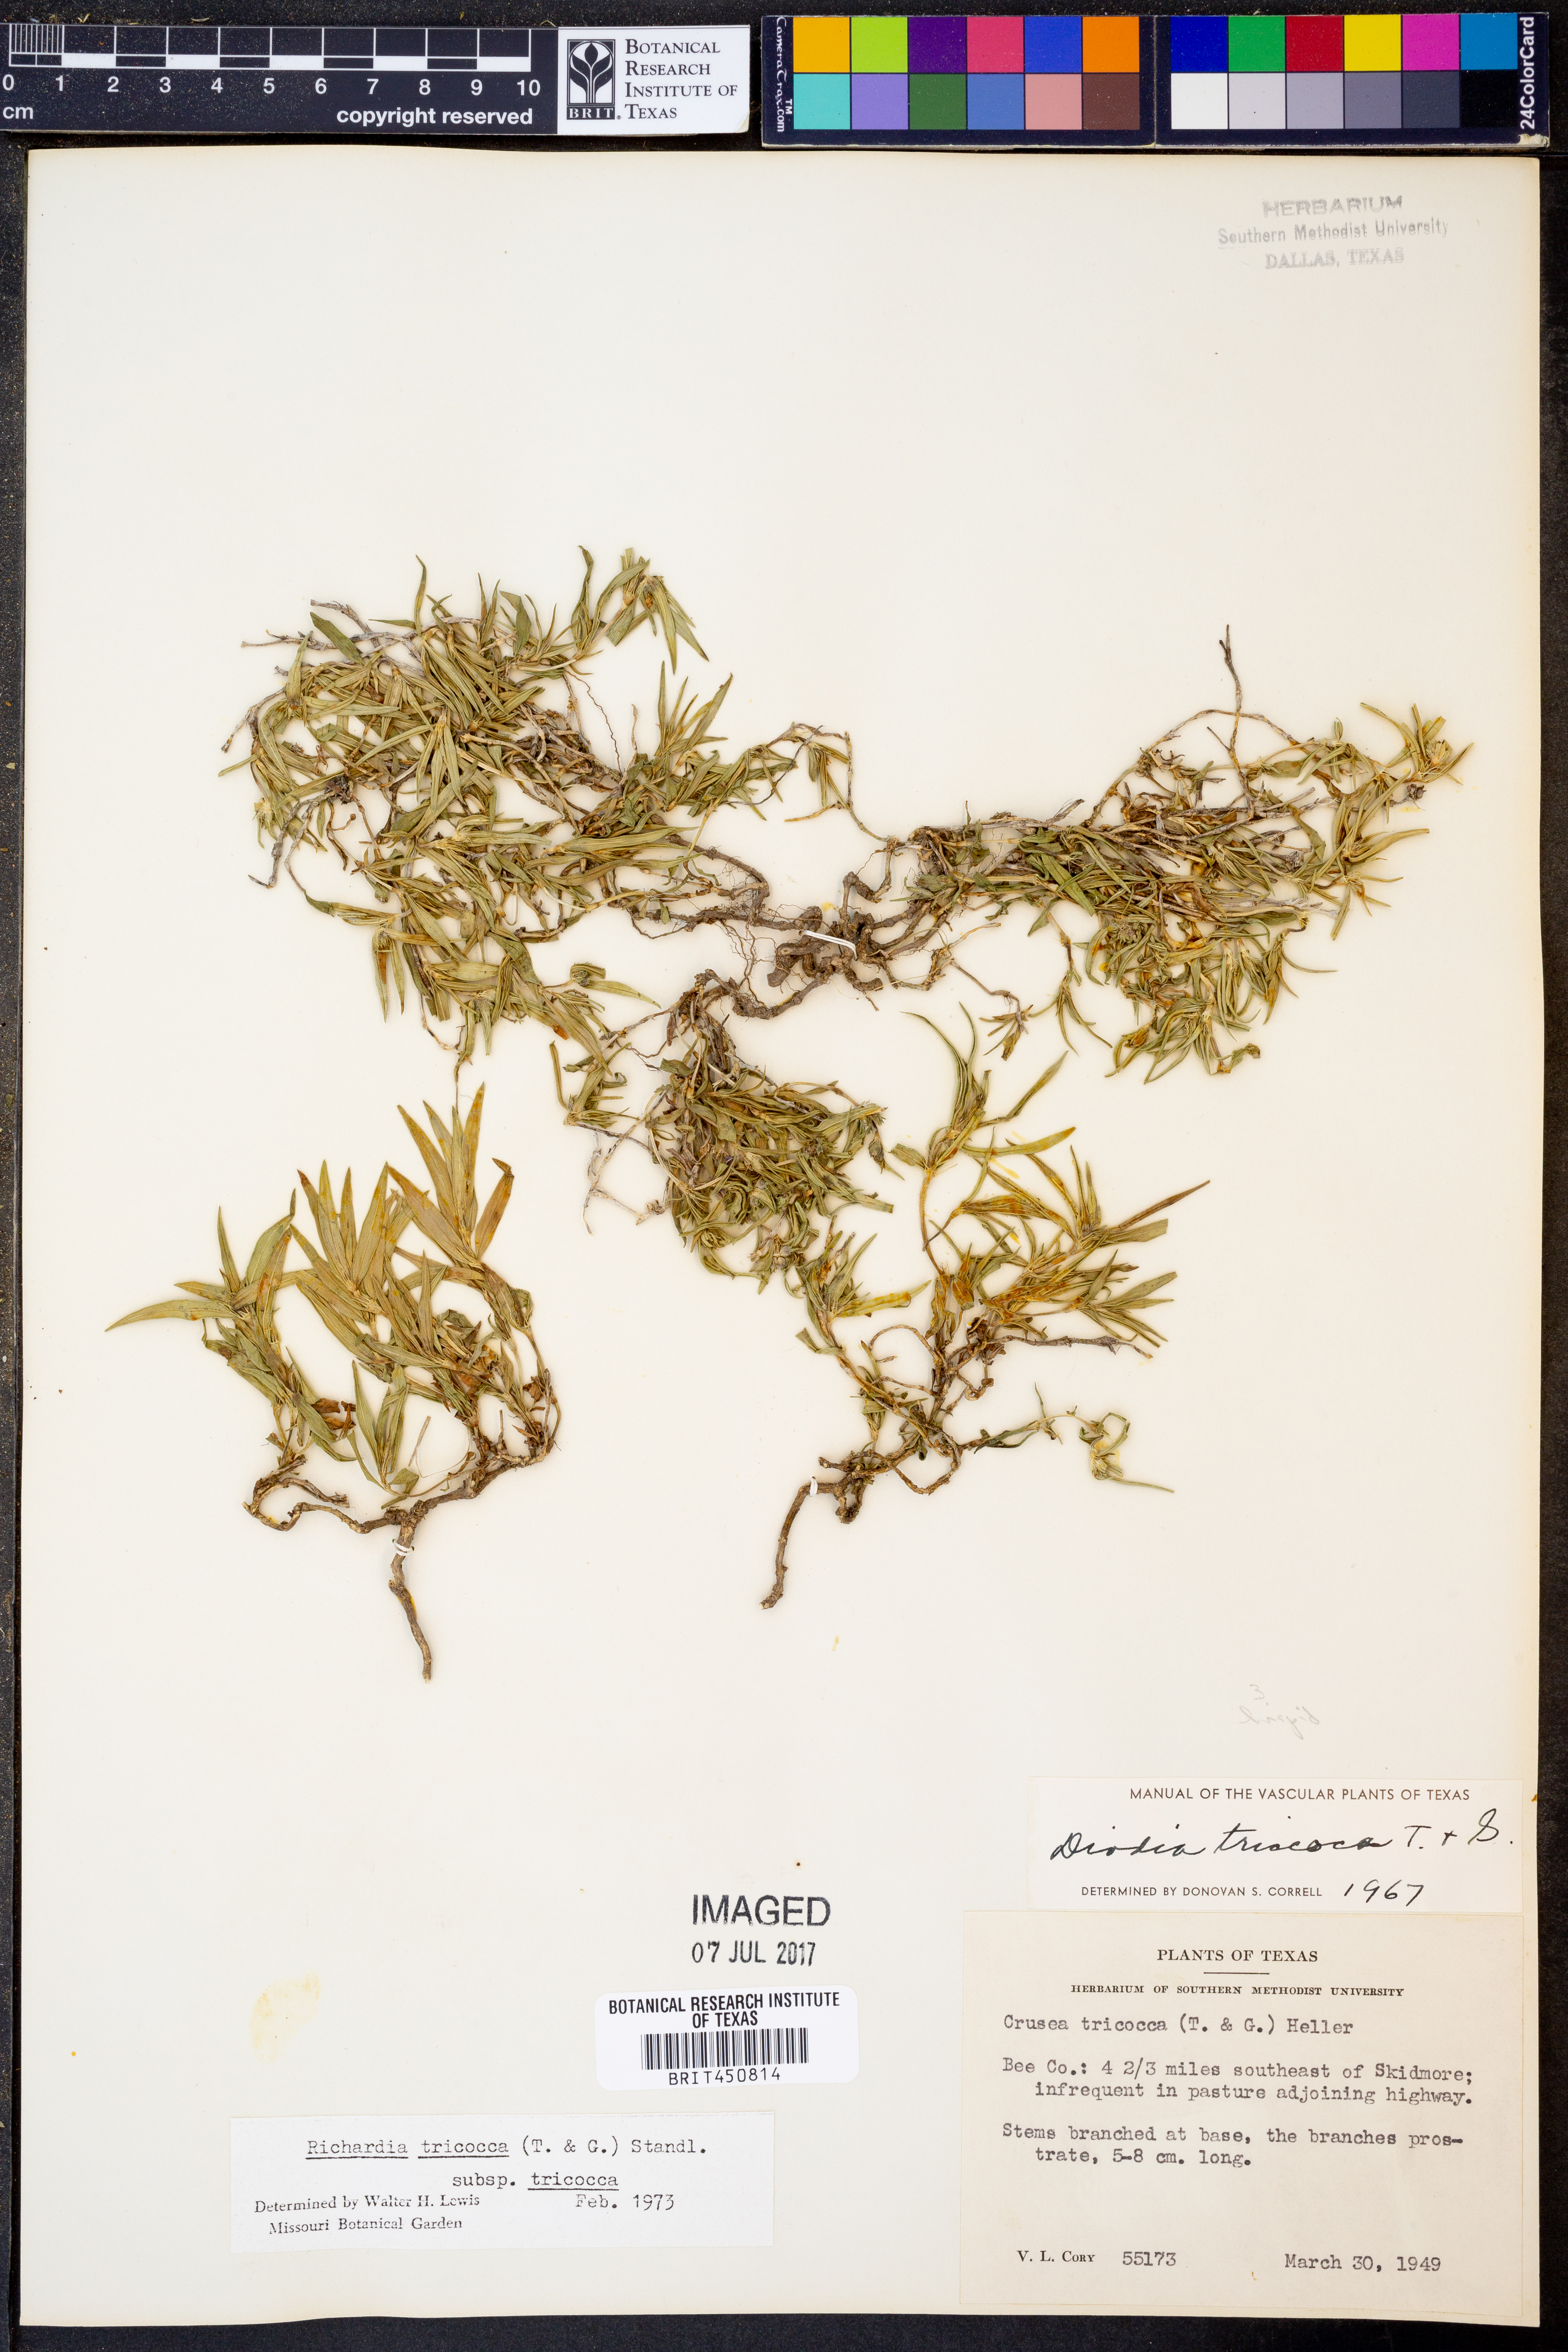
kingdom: Plantae
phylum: Tracheophyta
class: Magnoliopsida
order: Gentianales
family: Rubiaceae
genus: Richardia
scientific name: Richardia tricocca
